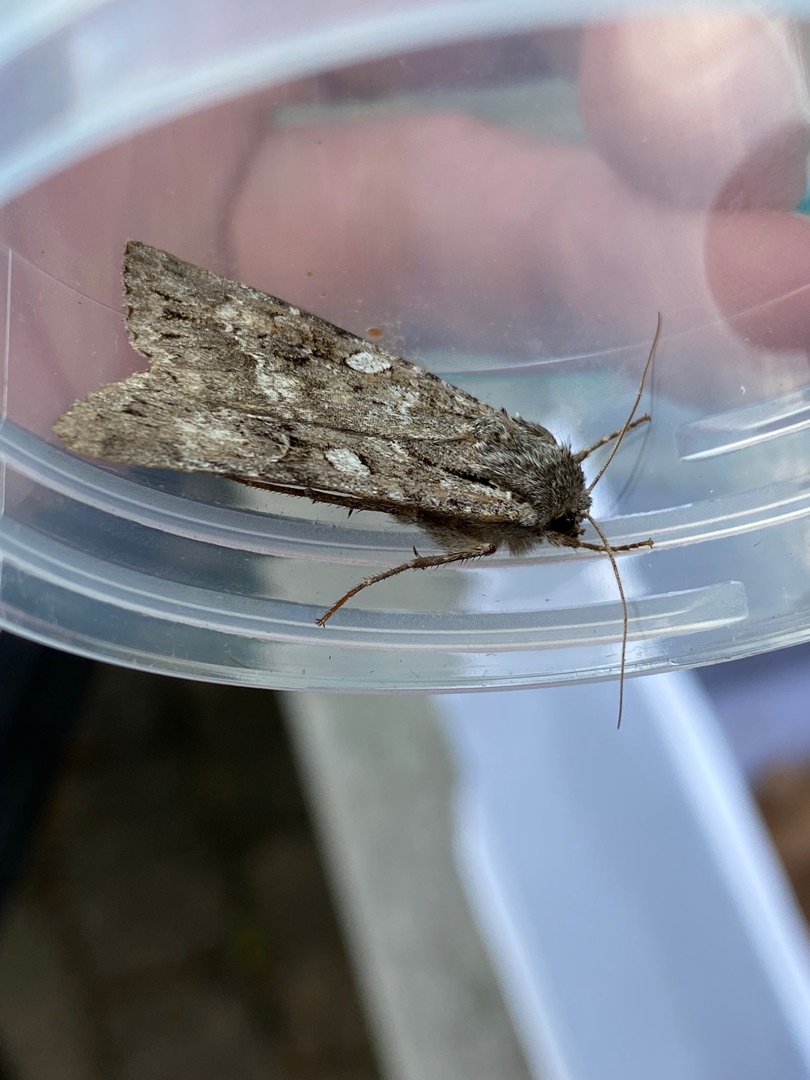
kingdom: Animalia
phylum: Arthropoda
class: Insecta
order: Lepidoptera
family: Noctuidae
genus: Eurois
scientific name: Eurois occulta
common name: Blågrå jordugle
